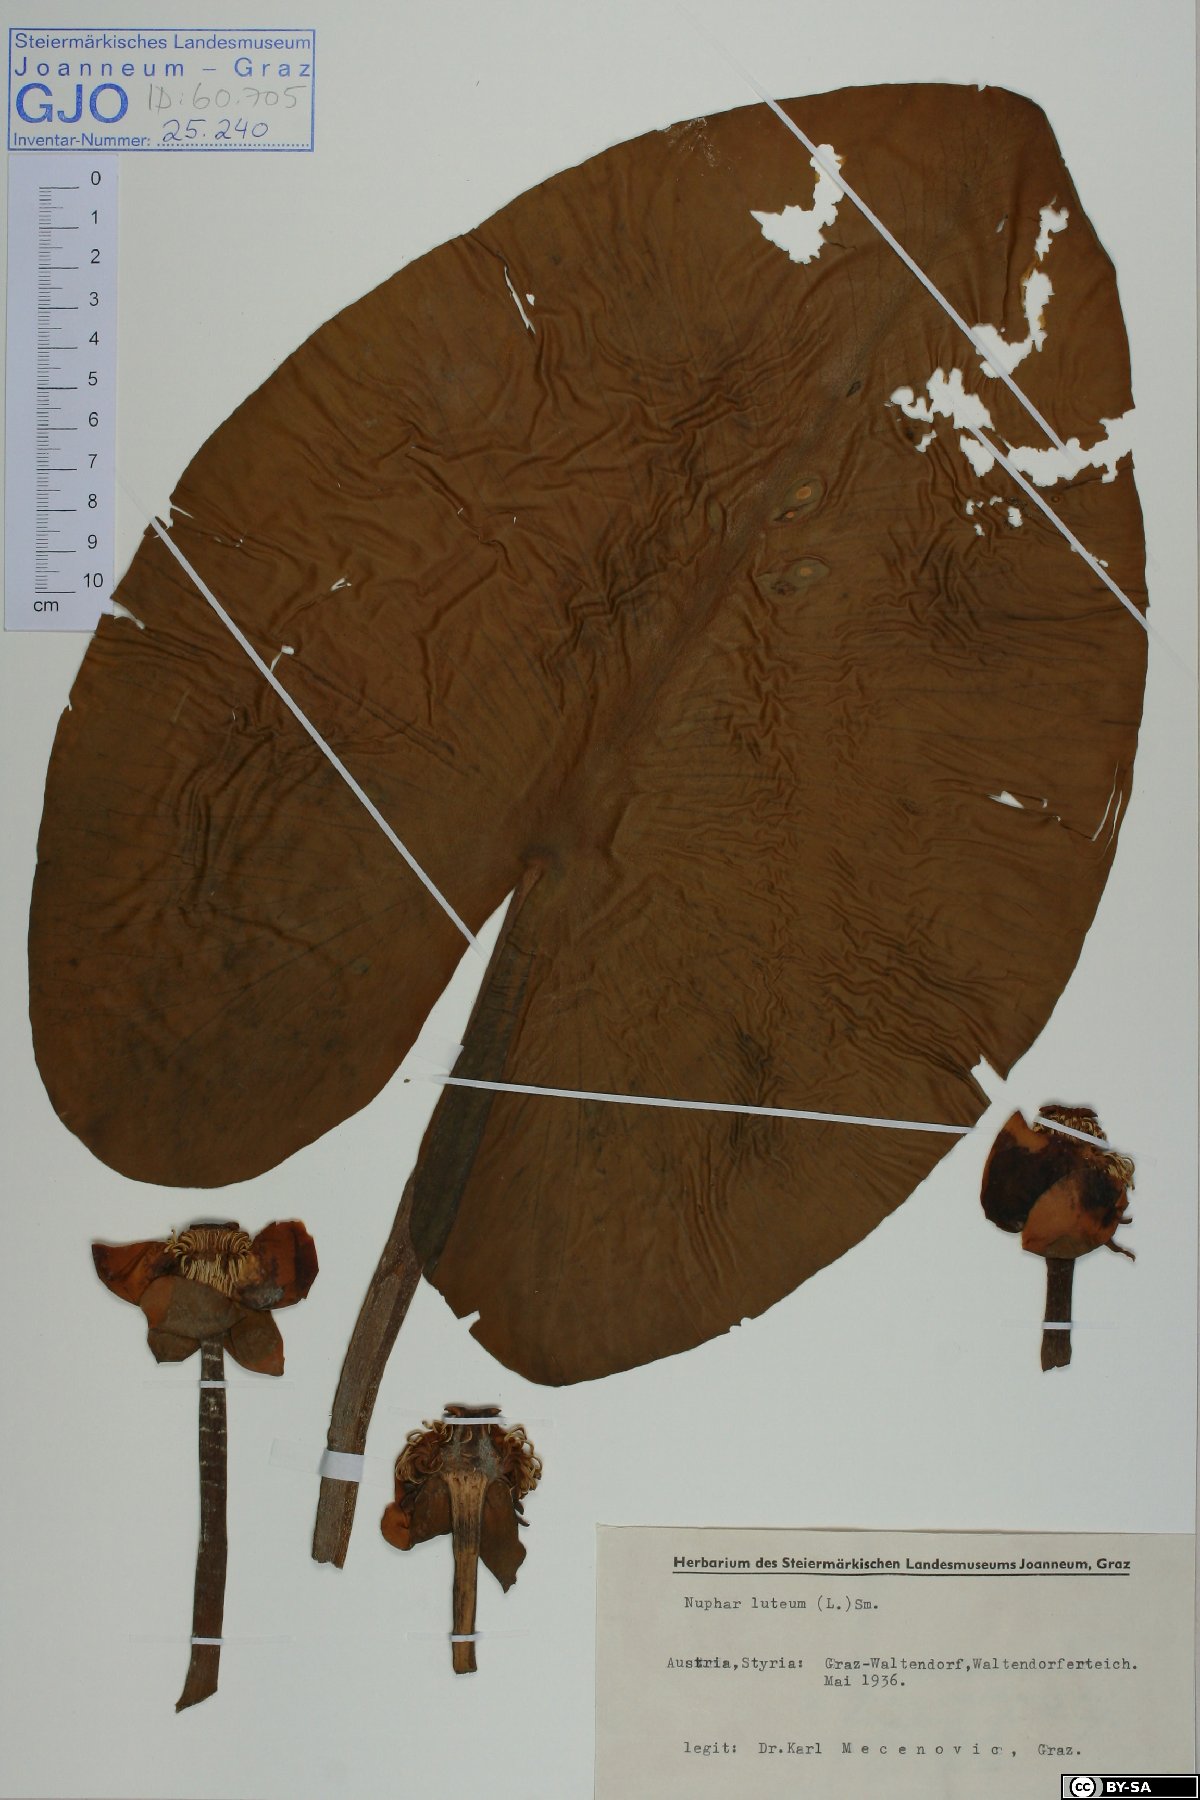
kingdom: Plantae
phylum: Tracheophyta
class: Magnoliopsida
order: Nymphaeales
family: Nymphaeaceae
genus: Nuphar
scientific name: Nuphar lutea
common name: Yellow water-lily
